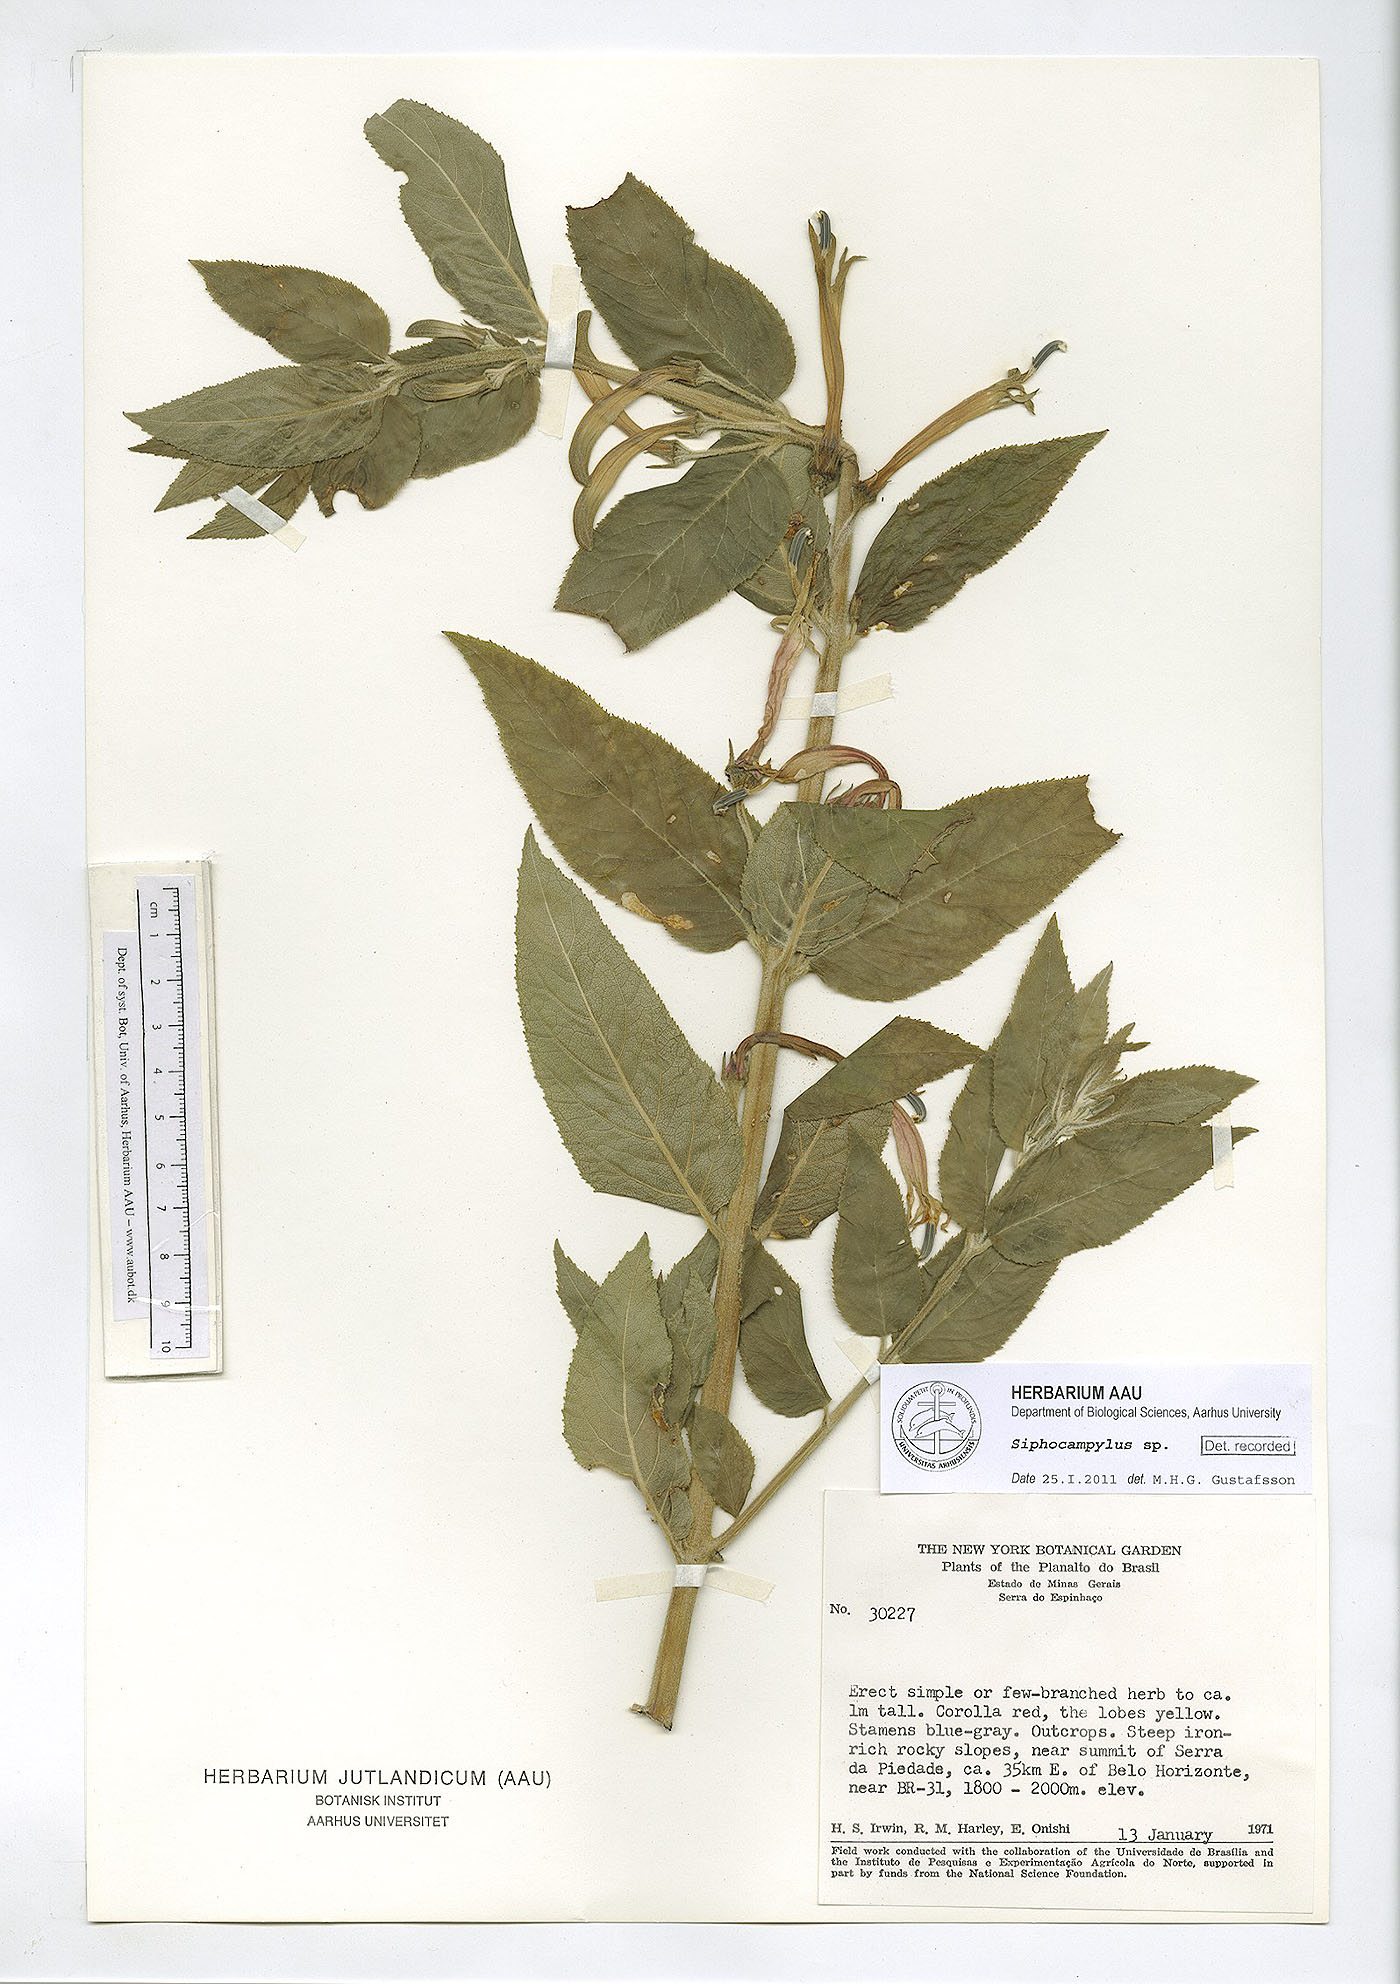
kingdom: Plantae
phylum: Tracheophyta
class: Magnoliopsida
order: Asterales
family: Campanulaceae
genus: Siphocampylus
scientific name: Siphocampylus
